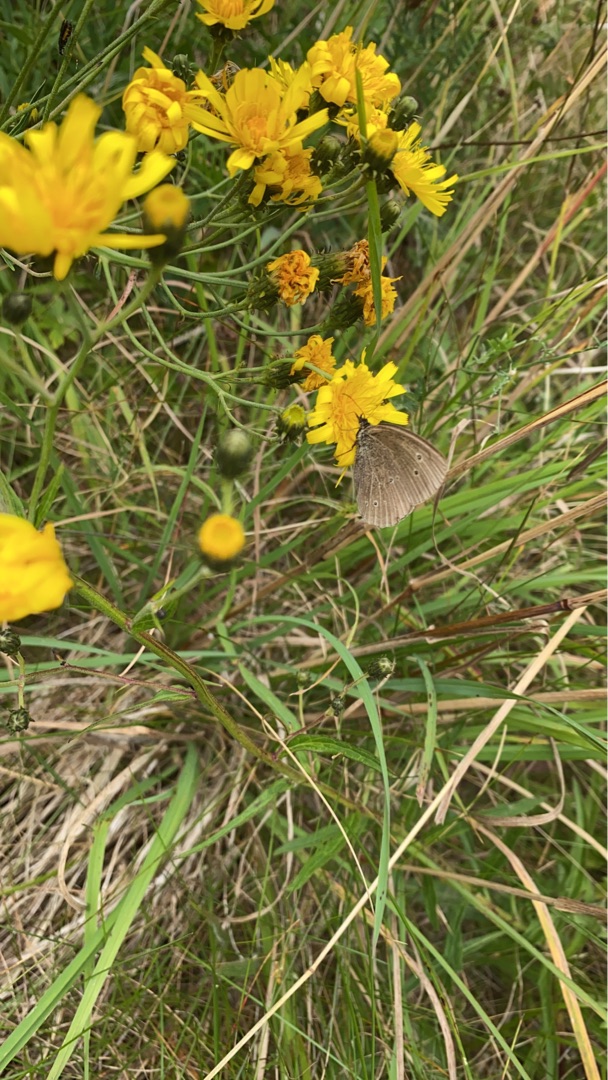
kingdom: Animalia
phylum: Arthropoda
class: Insecta
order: Lepidoptera
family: Nymphalidae
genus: Aphantopus
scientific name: Aphantopus hyperantus
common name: Engrandøje
